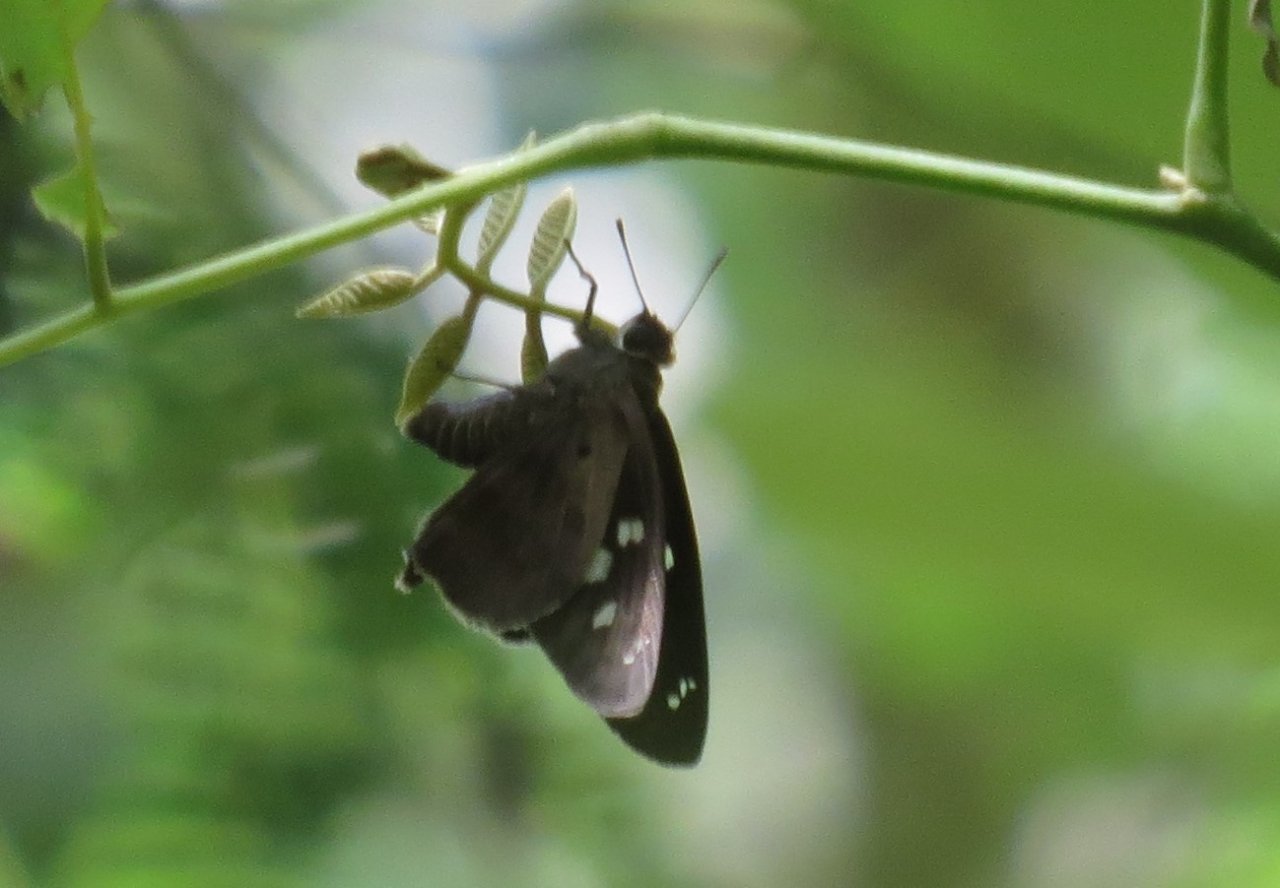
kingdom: Animalia
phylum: Arthropoda
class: Insecta
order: Lepidoptera
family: Hesperiidae
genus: Polygonus
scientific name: Polygonus leo
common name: Hammock Skipper
